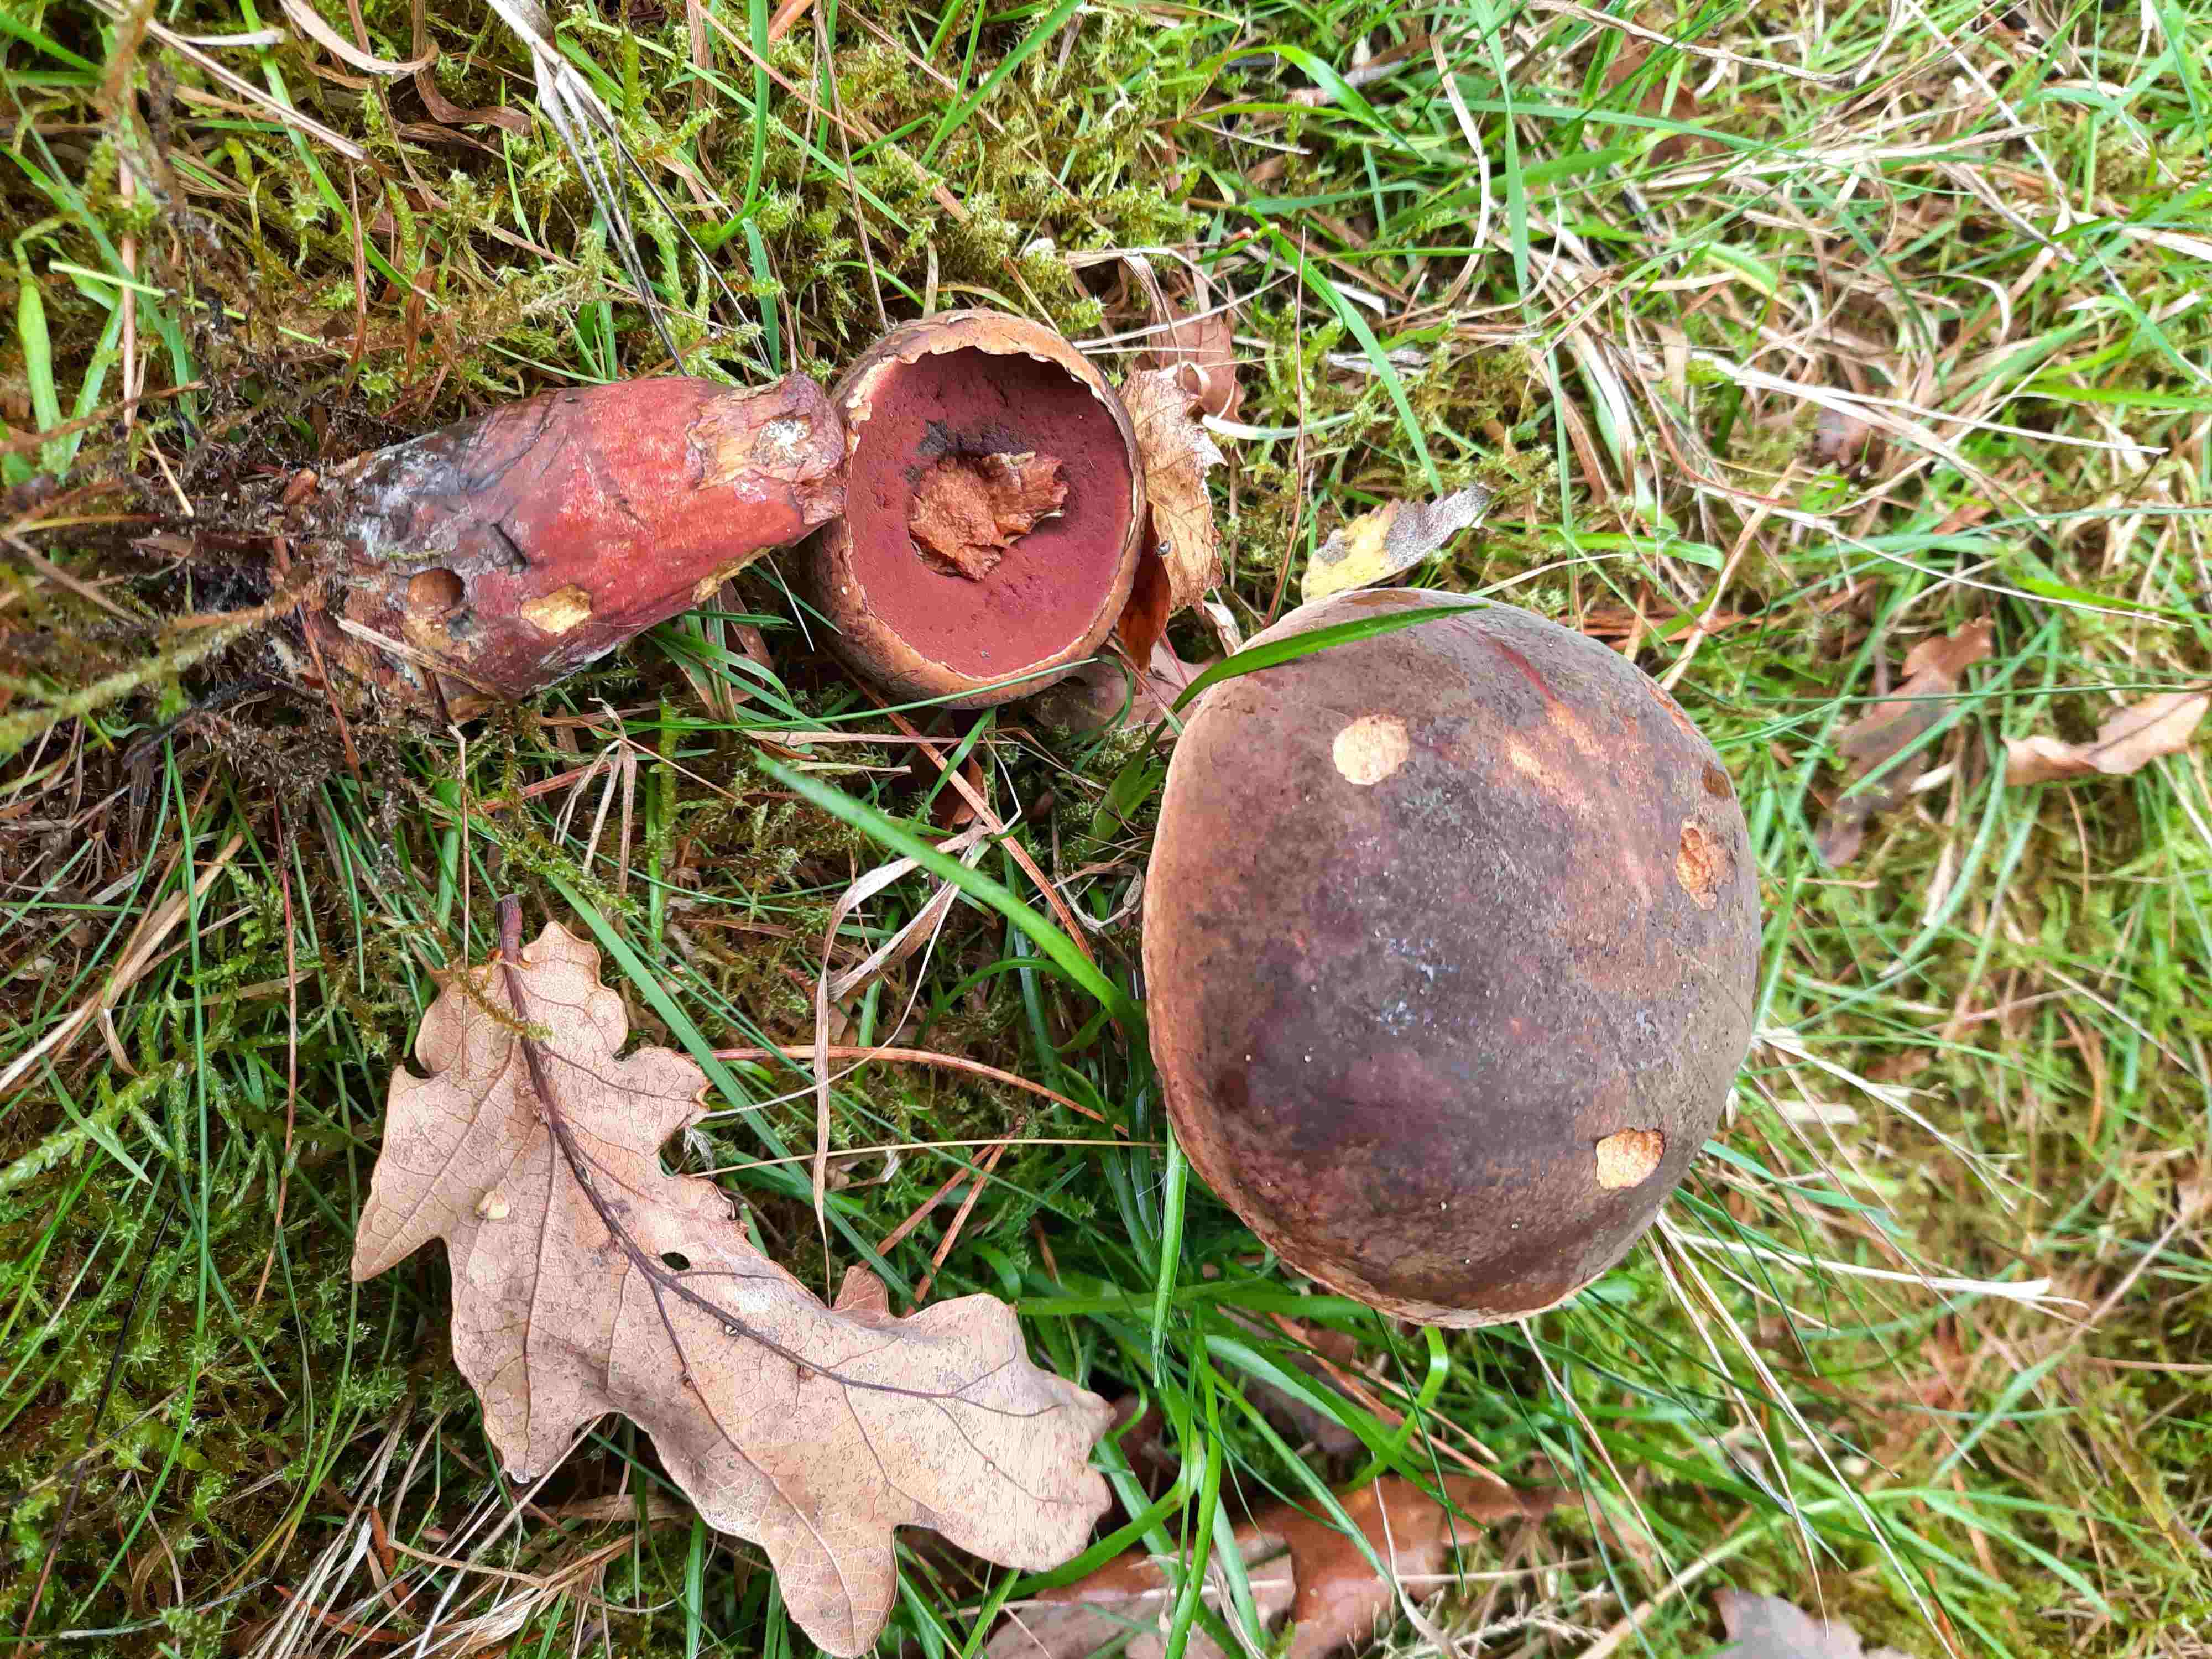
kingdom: Fungi
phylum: Basidiomycota
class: Agaricomycetes
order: Boletales
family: Boletaceae
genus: Neoboletus
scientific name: Neoboletus erythropus
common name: punktstokket indigorørhat
